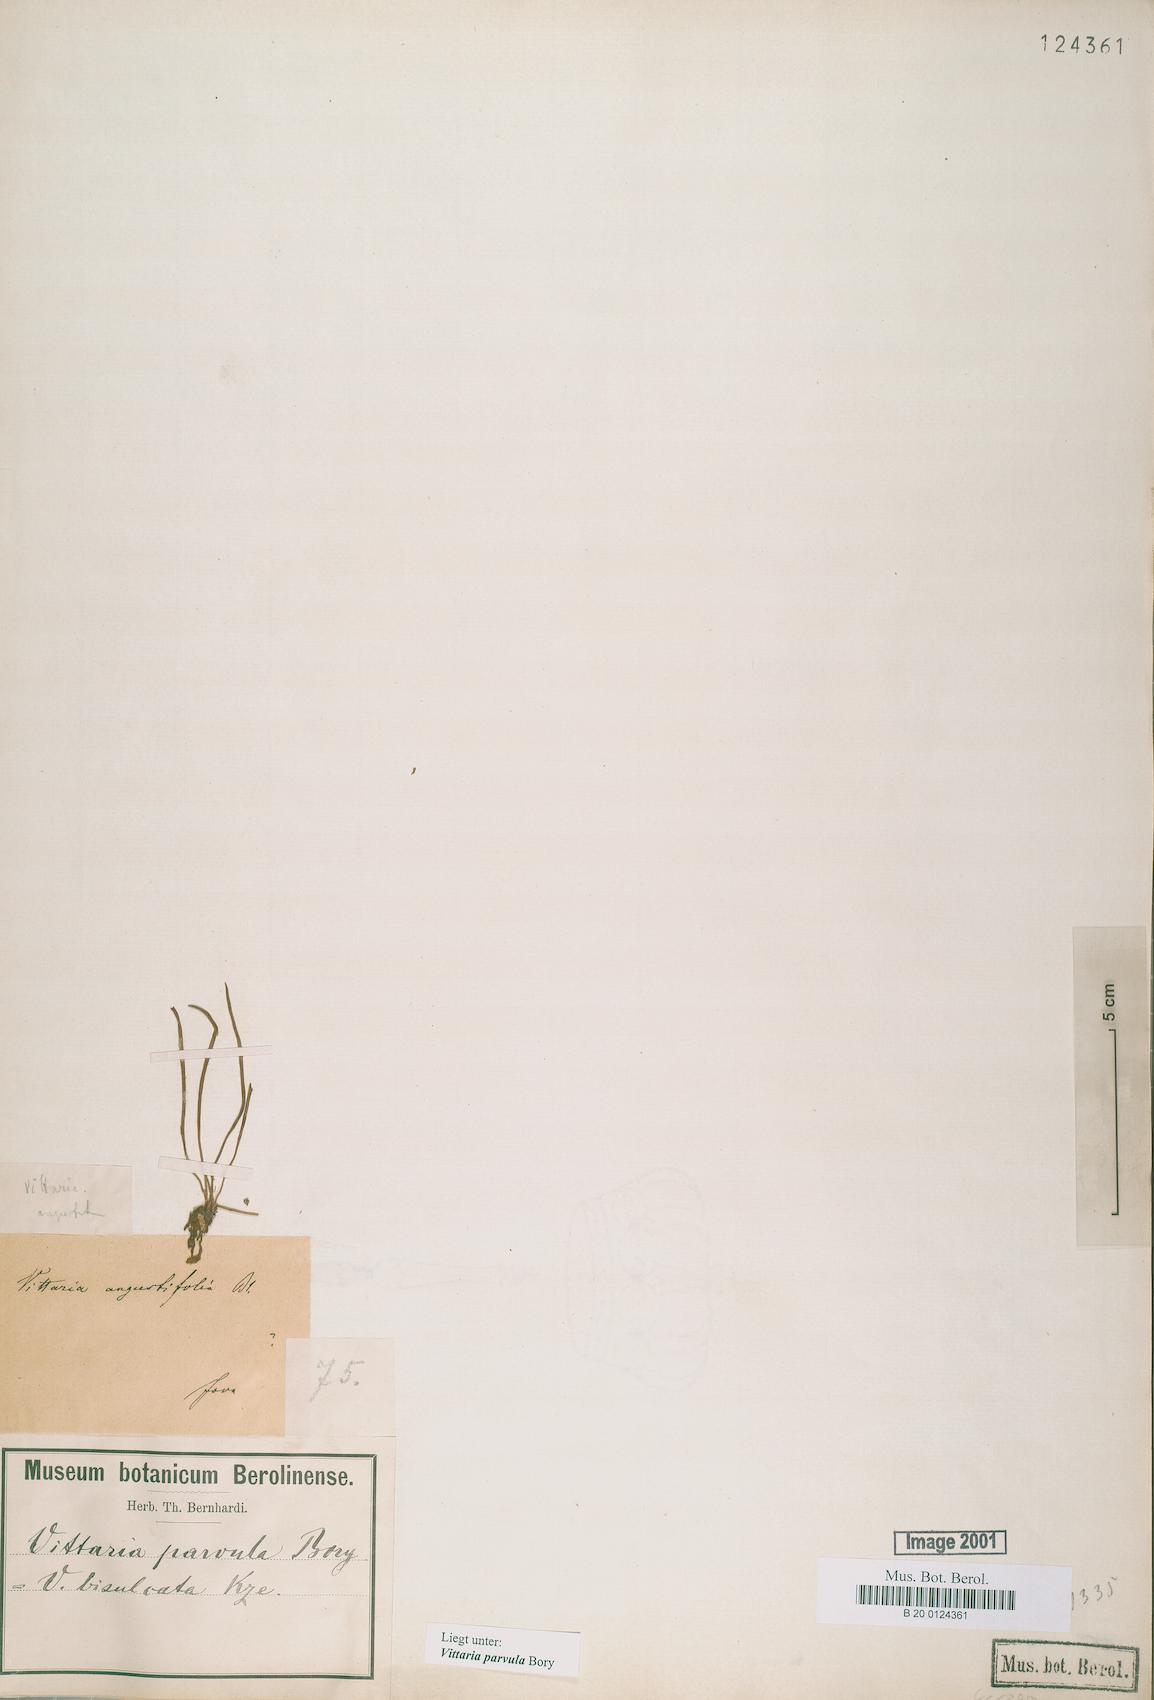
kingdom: Plantae
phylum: Tracheophyta
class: Polypodiopsida
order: Polypodiales
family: Pteridaceae
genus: Haplopteris
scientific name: Haplopteris elongata
